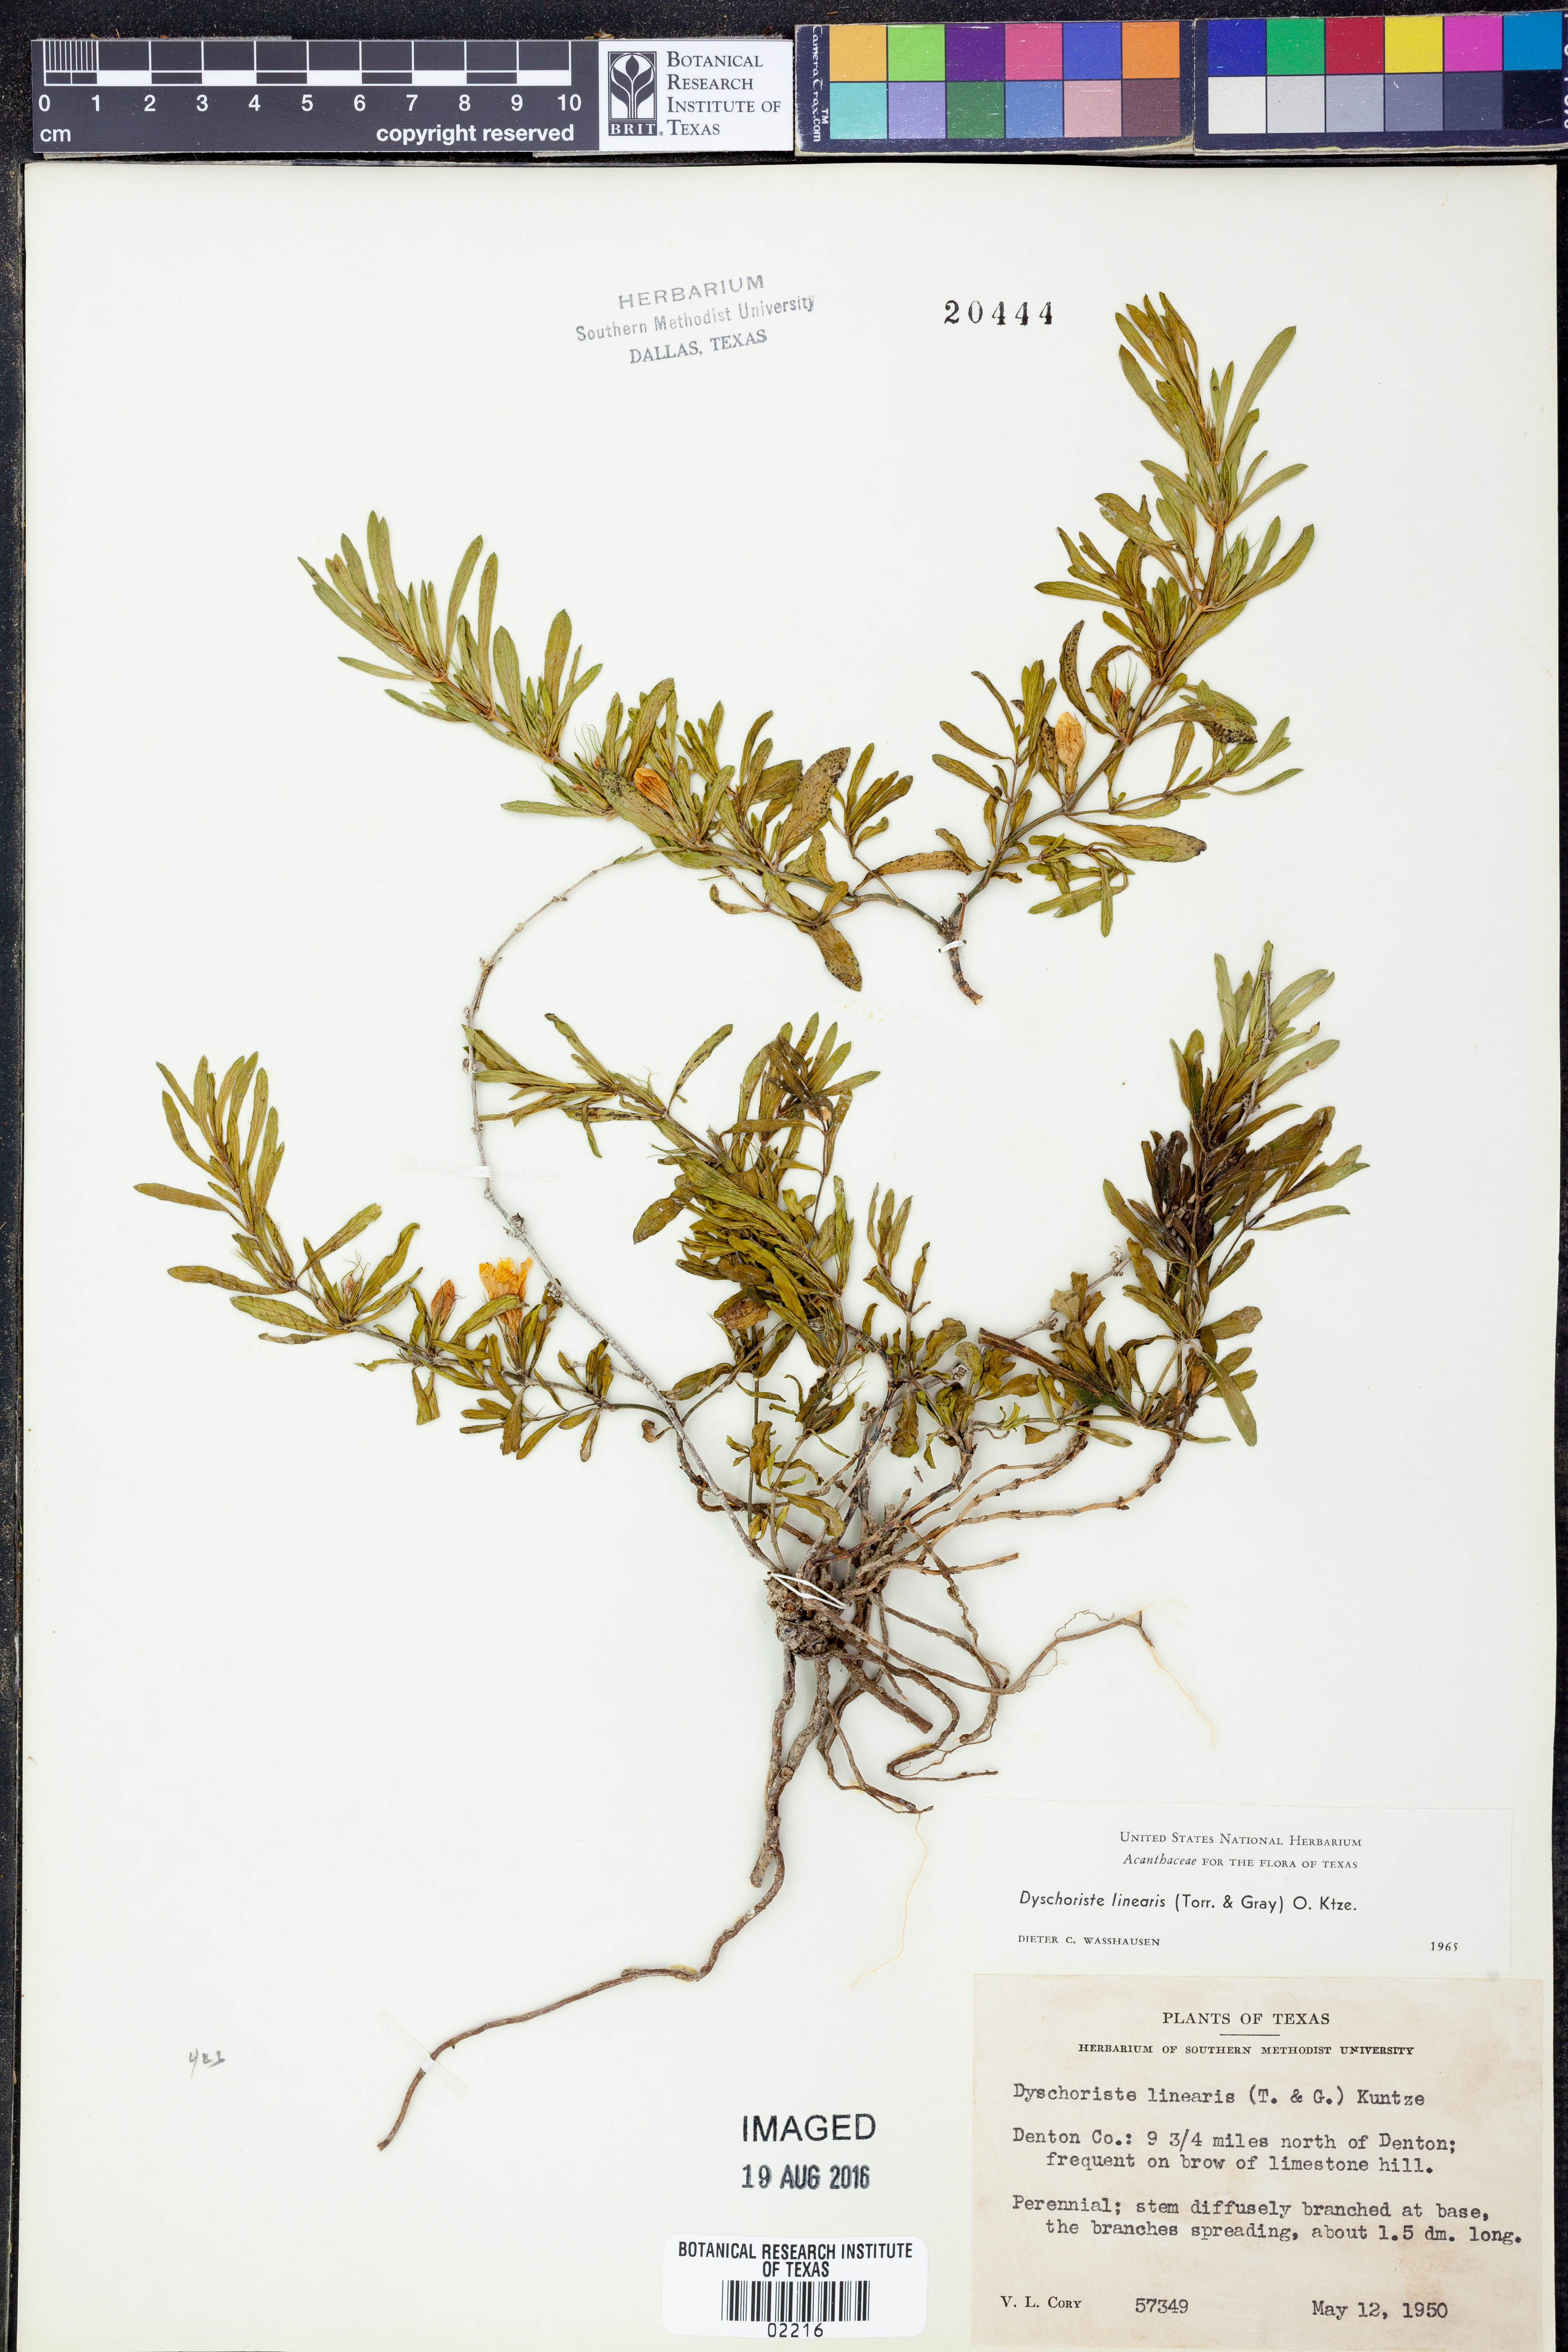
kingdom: Plantae
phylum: Tracheophyta
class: Magnoliopsida
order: Lamiales
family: Acanthaceae
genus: Dyschoriste
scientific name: Dyschoriste linearis
